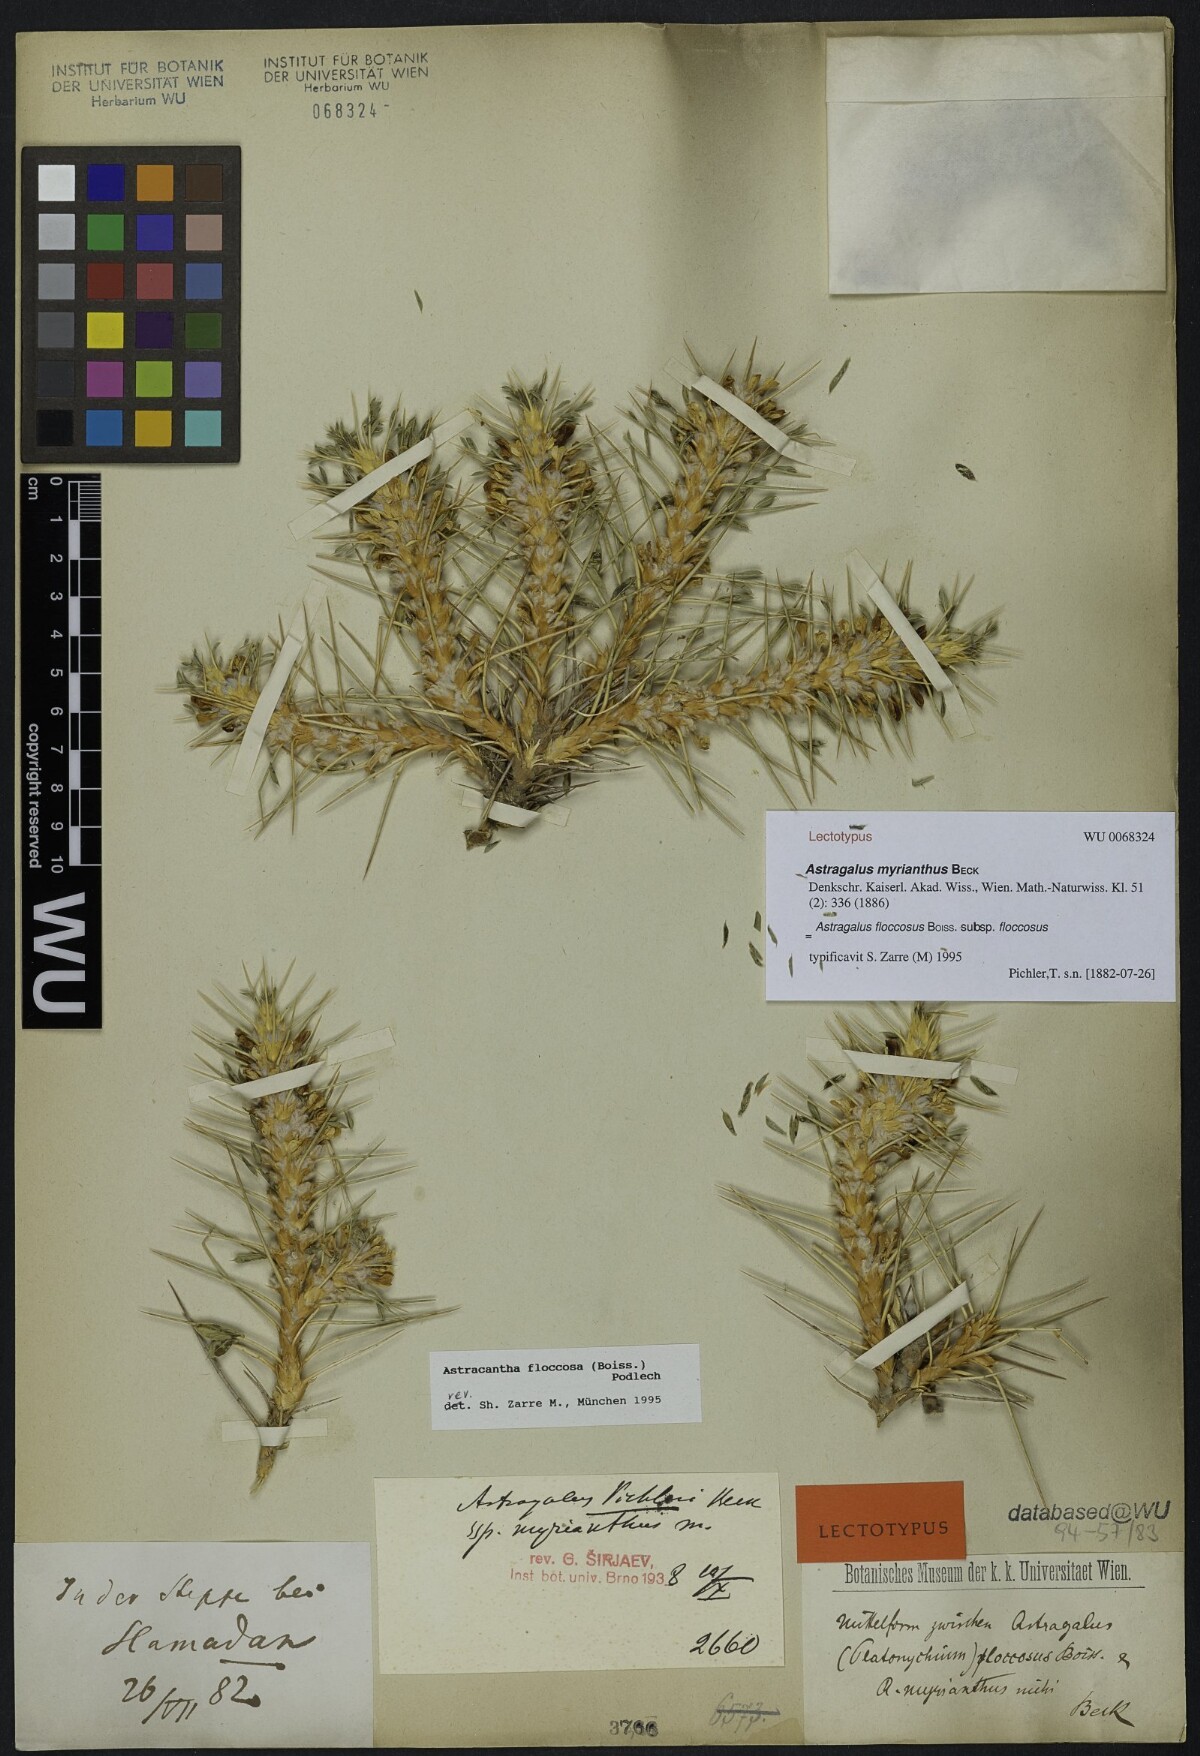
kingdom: Plantae
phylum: Tracheophyta
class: Magnoliopsida
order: Fabales
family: Fabaceae
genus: Astragalus
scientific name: Astragalus floccosus
